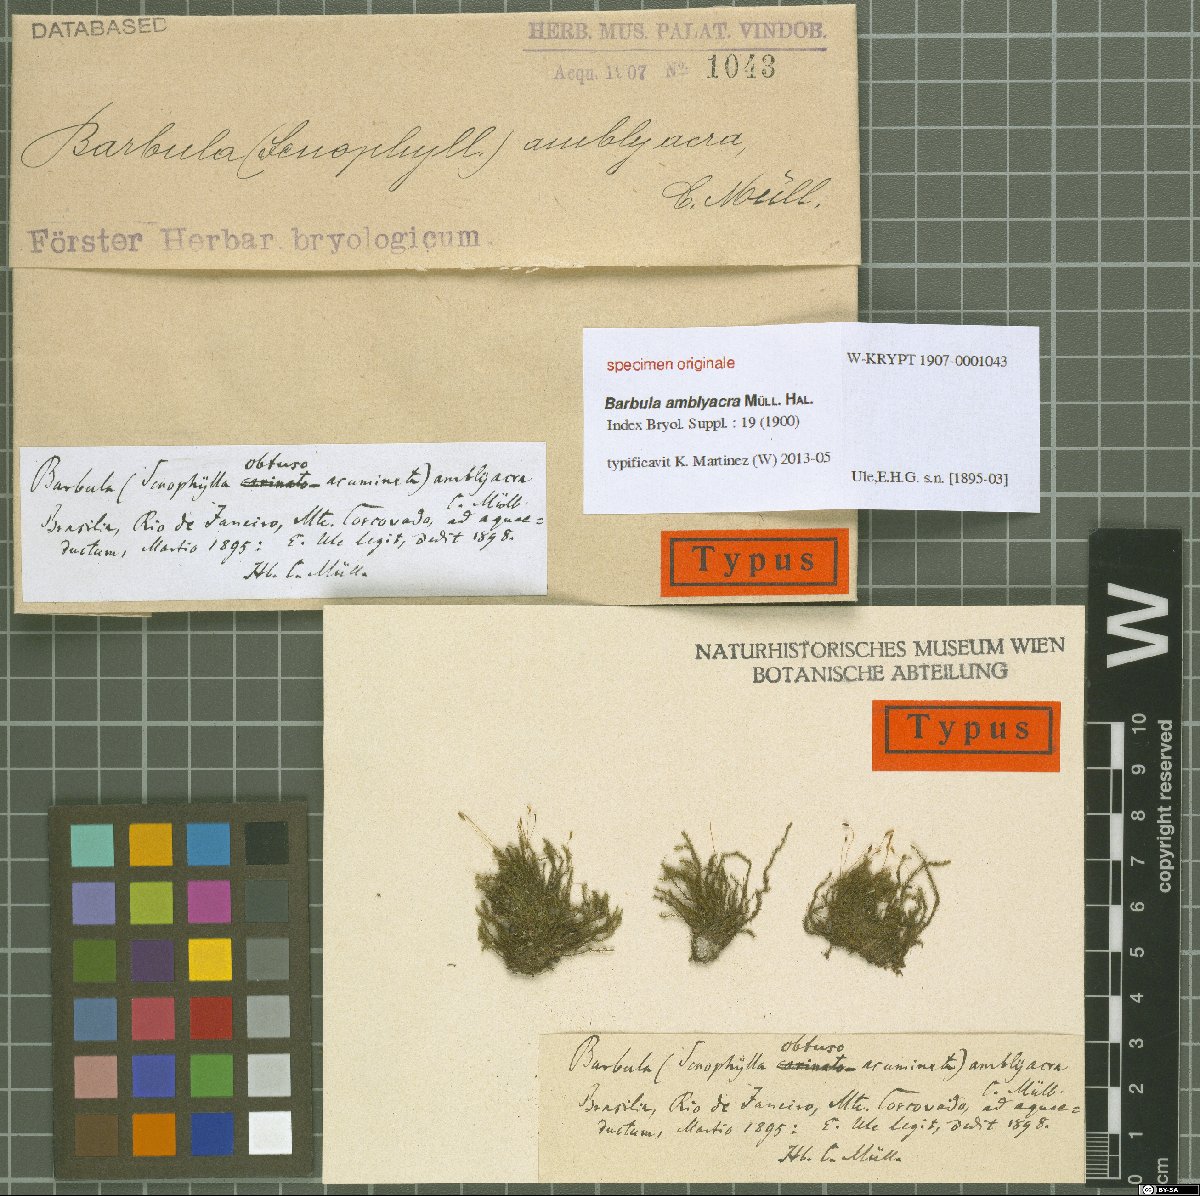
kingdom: Plantae
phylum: Bryophyta
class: Bryopsida
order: Pottiales
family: Pottiaceae
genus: Barbula
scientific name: Barbula
